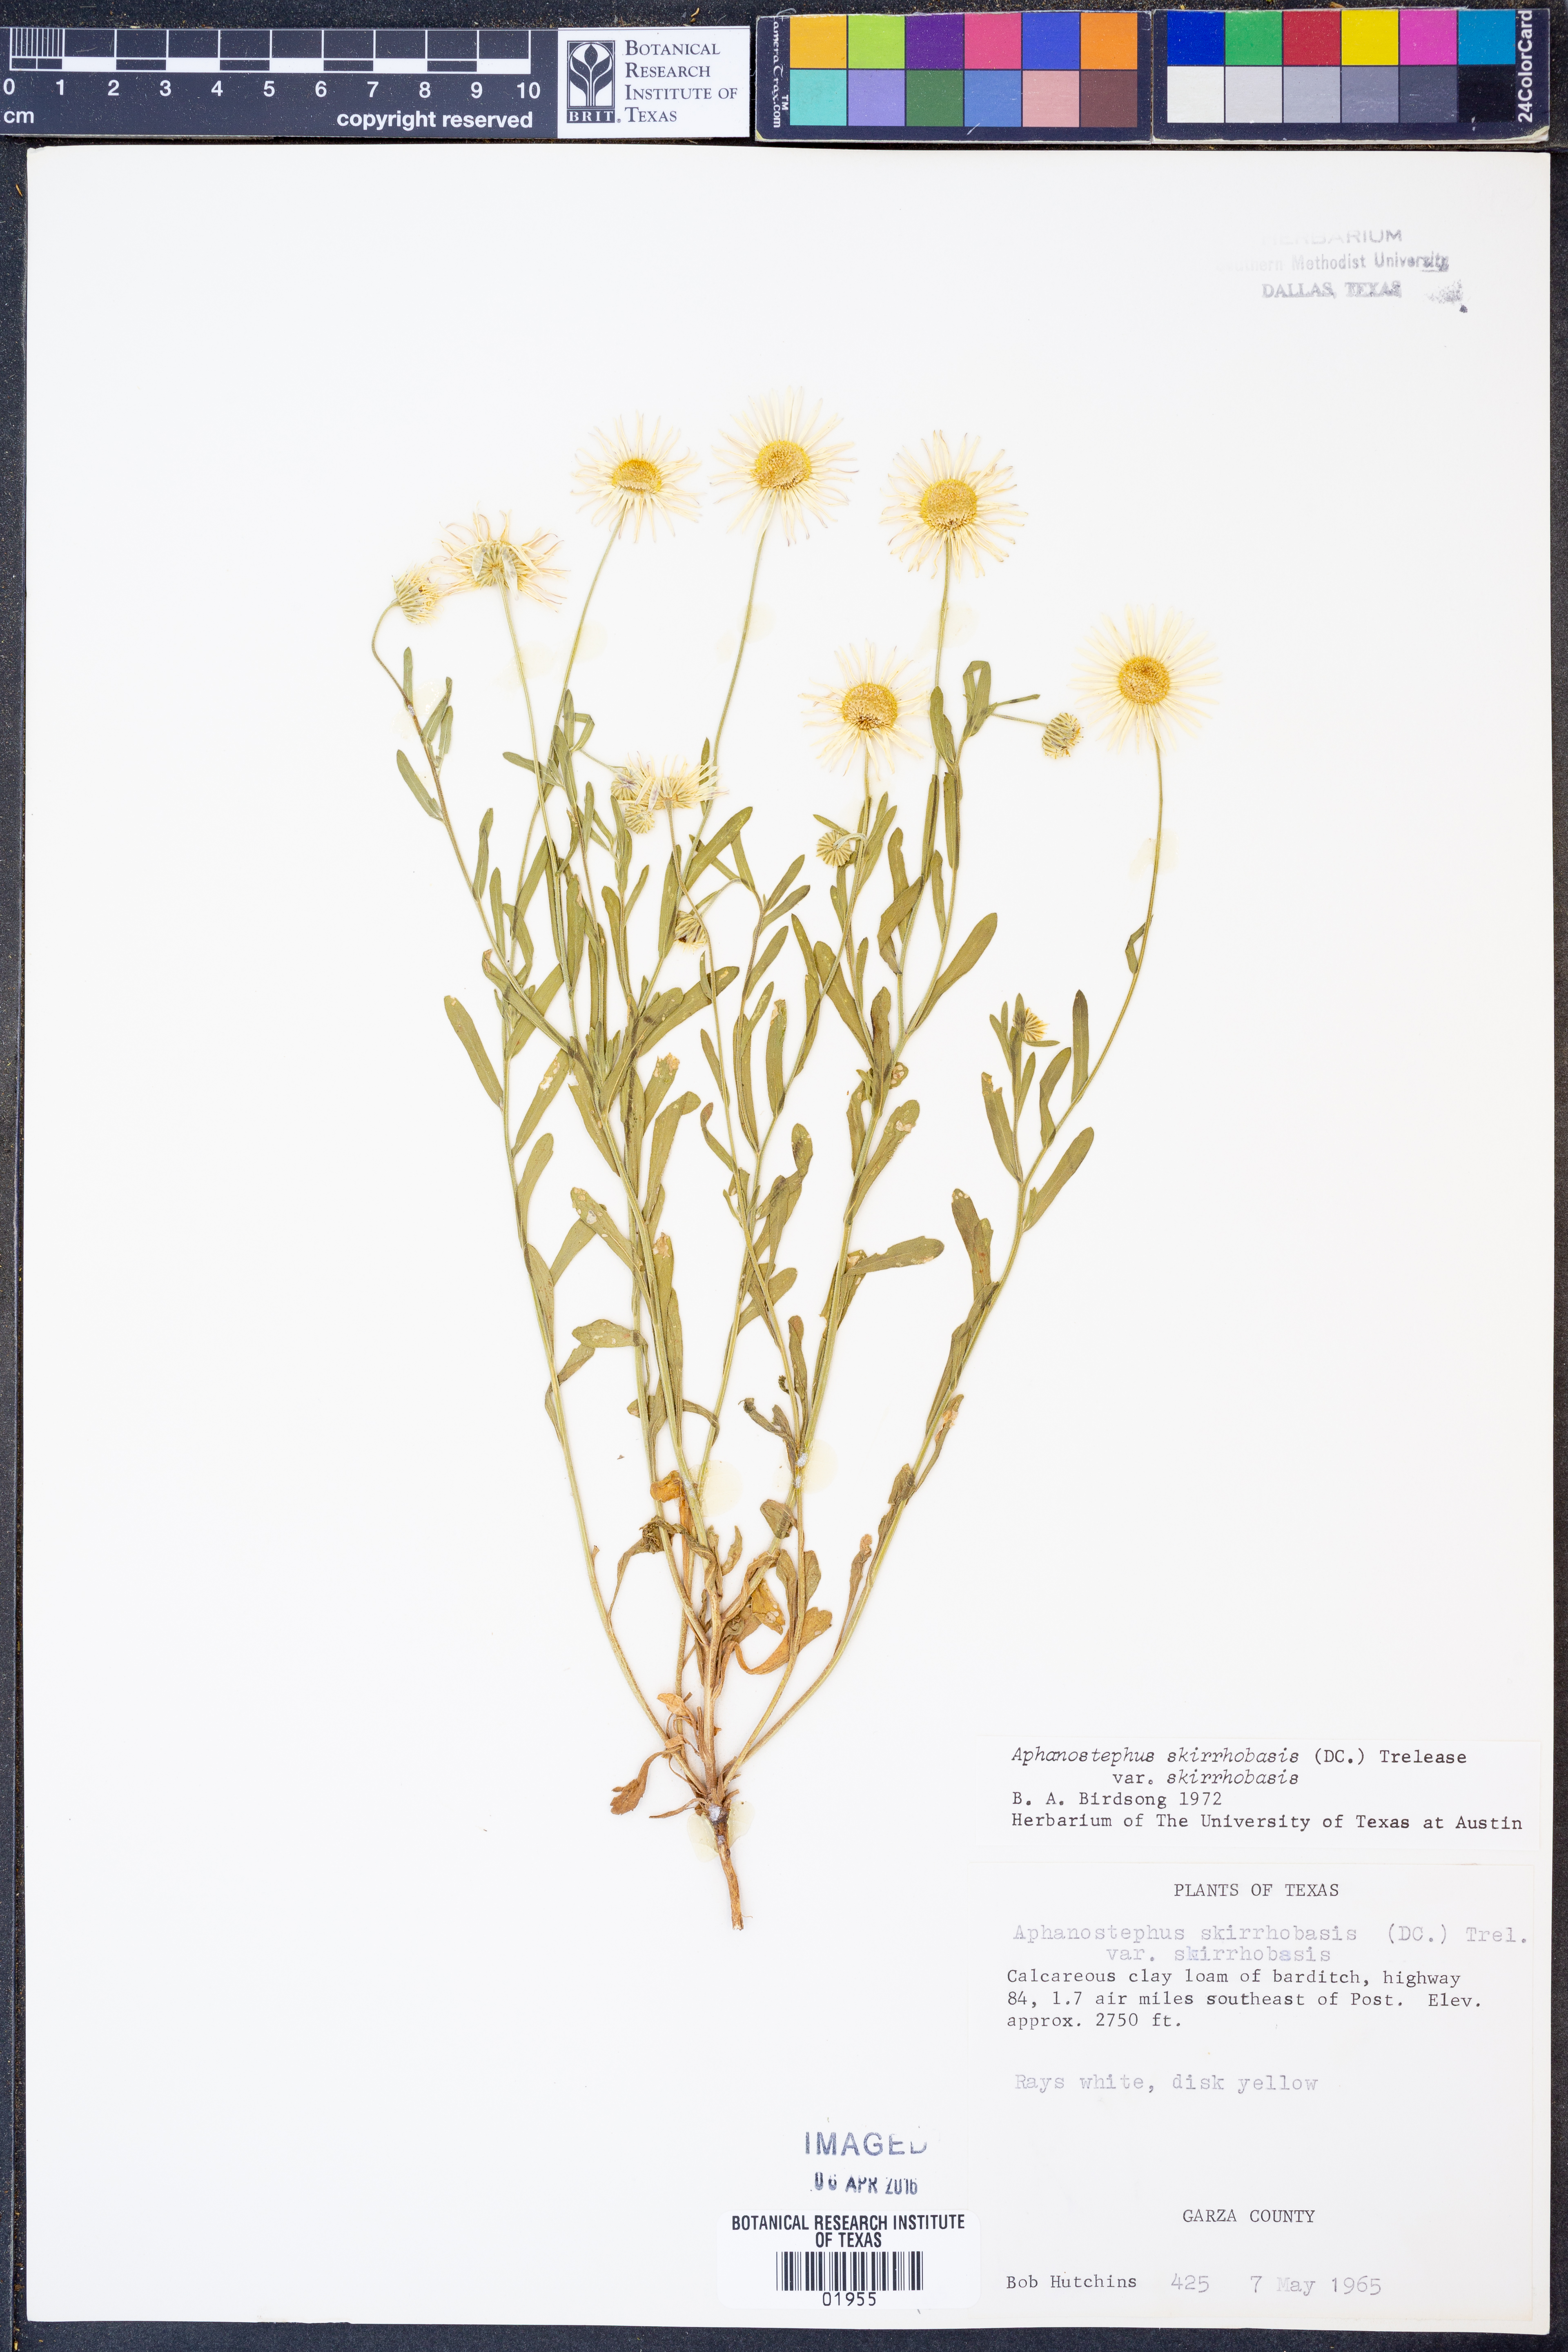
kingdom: Plantae
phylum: Tracheophyta
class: Magnoliopsida
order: Asterales
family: Asteraceae
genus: Aphanostephus
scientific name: Aphanostephus skirrhobasis
